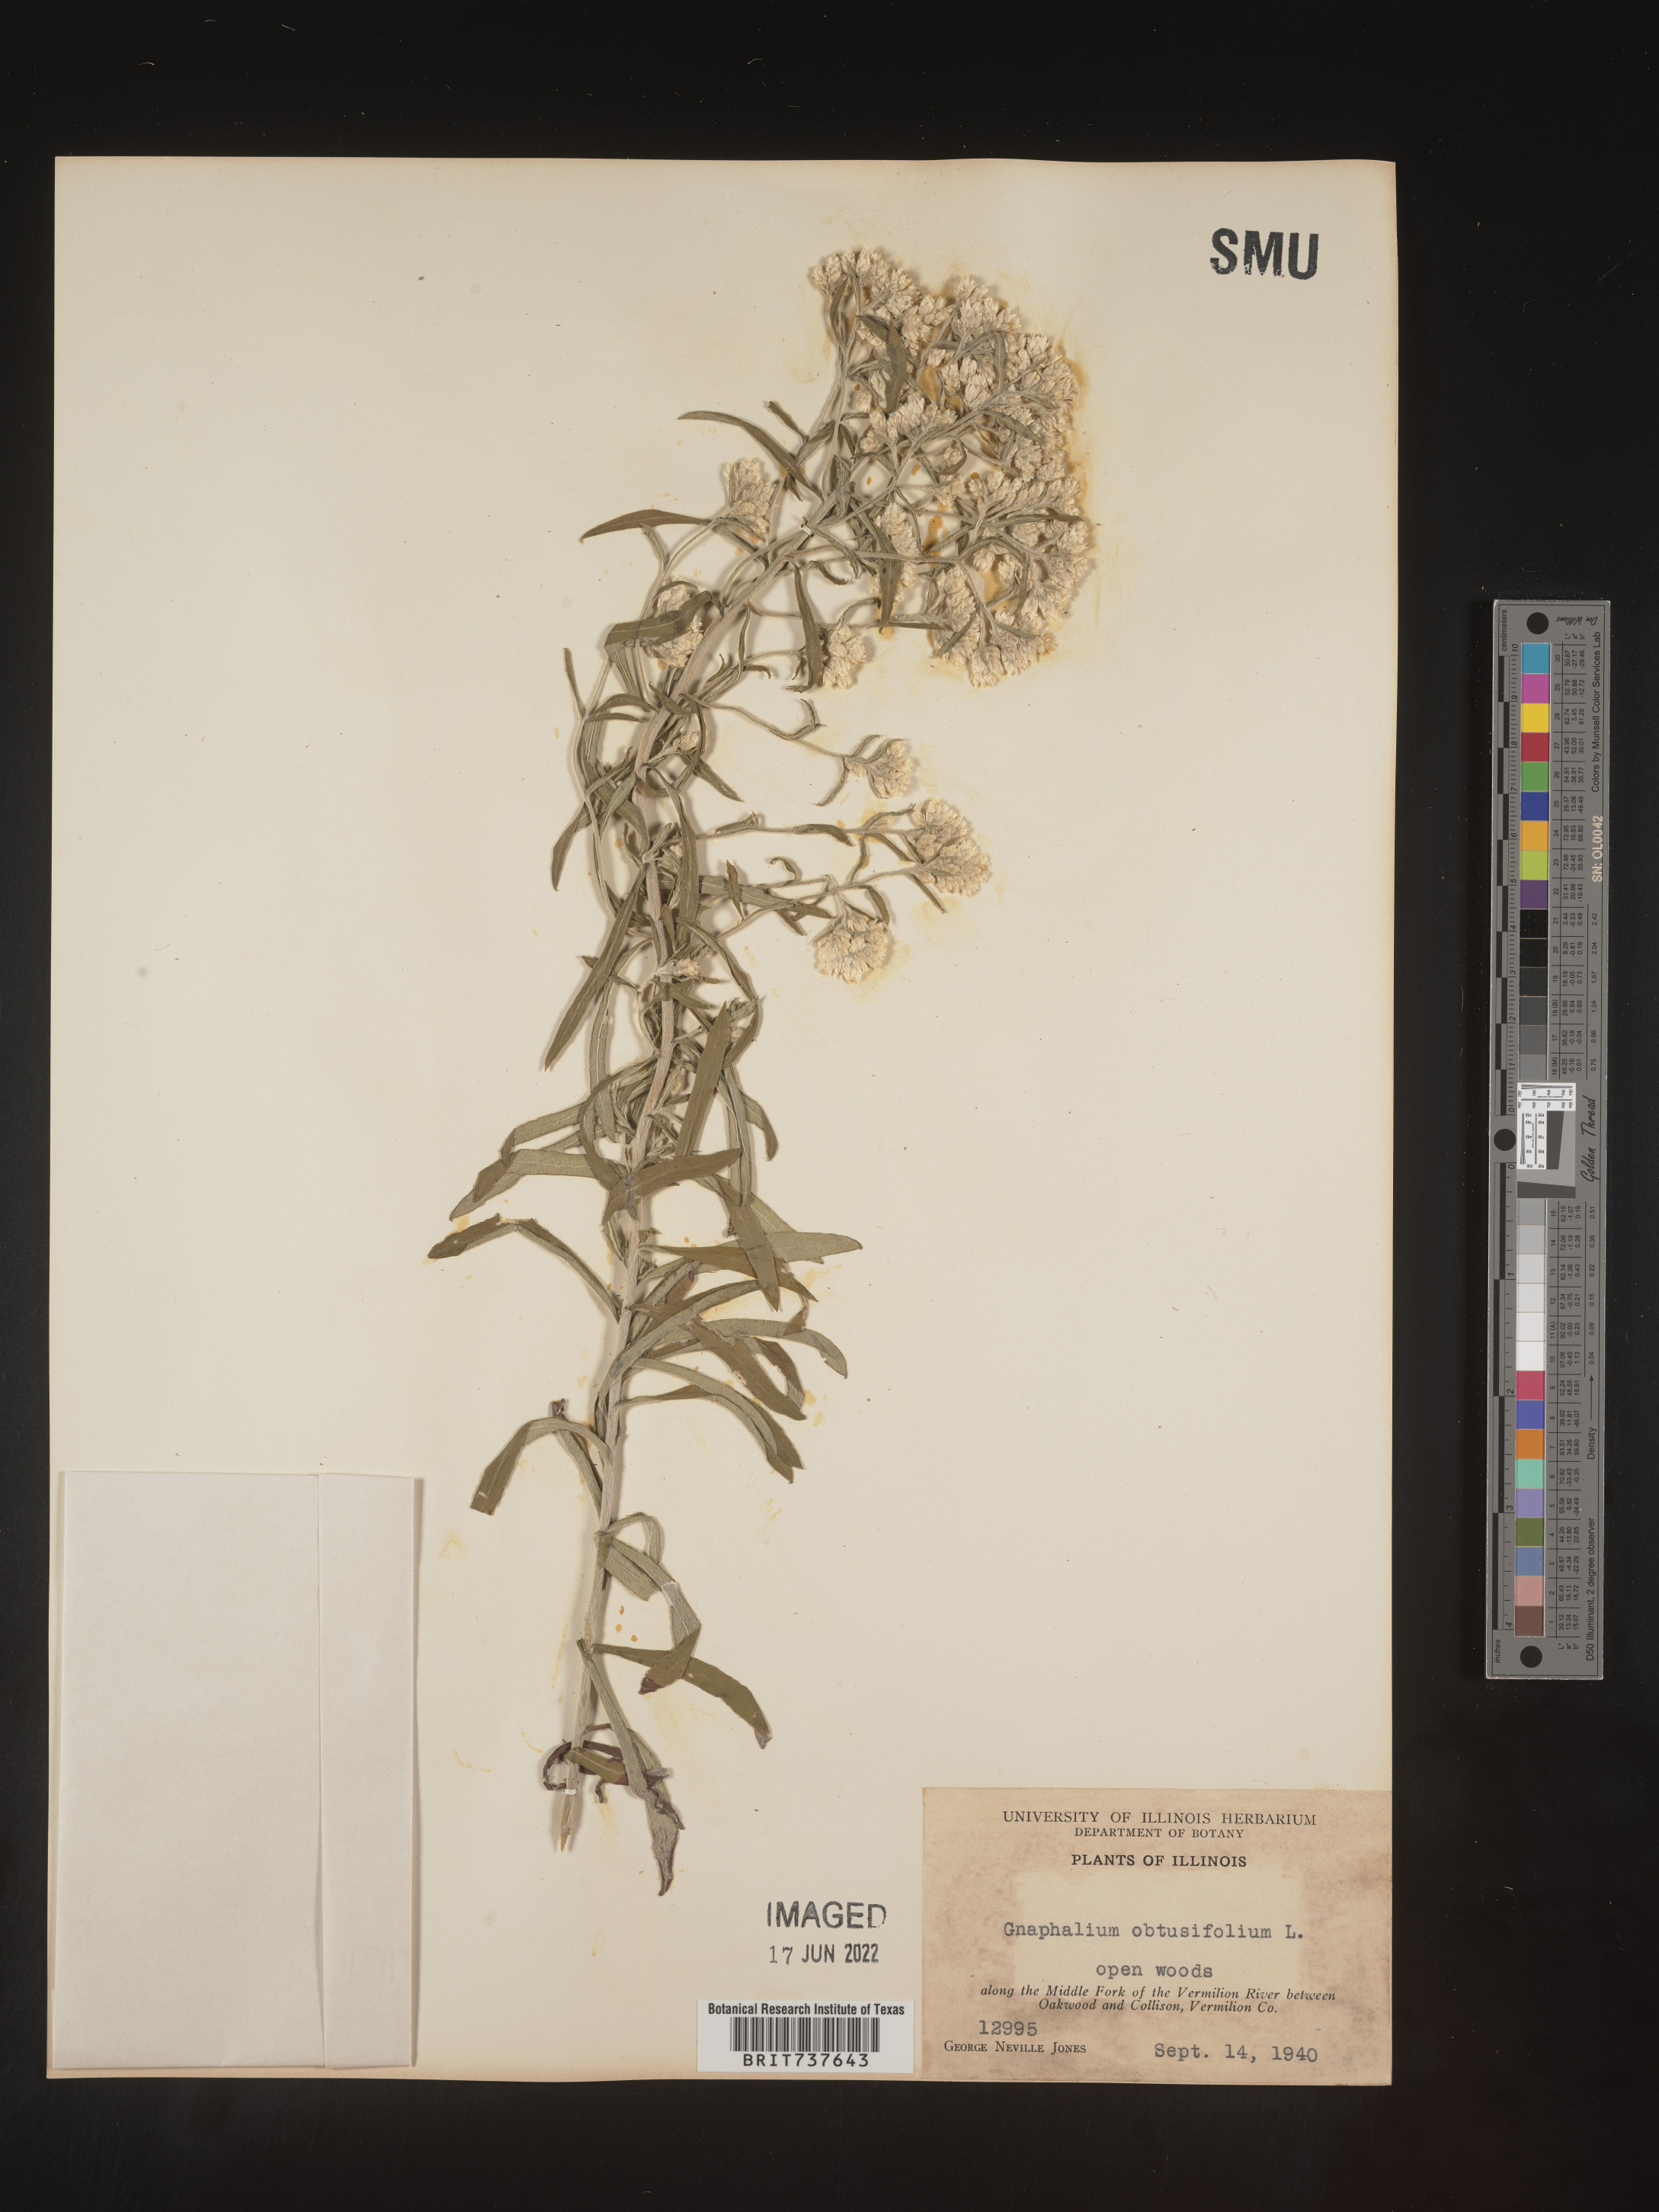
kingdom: Plantae
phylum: Tracheophyta
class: Magnoliopsida
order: Asterales
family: Asteraceae
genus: Pseudognaphalium
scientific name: Pseudognaphalium obtusifolium
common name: Eastern rabbit-tobacco
